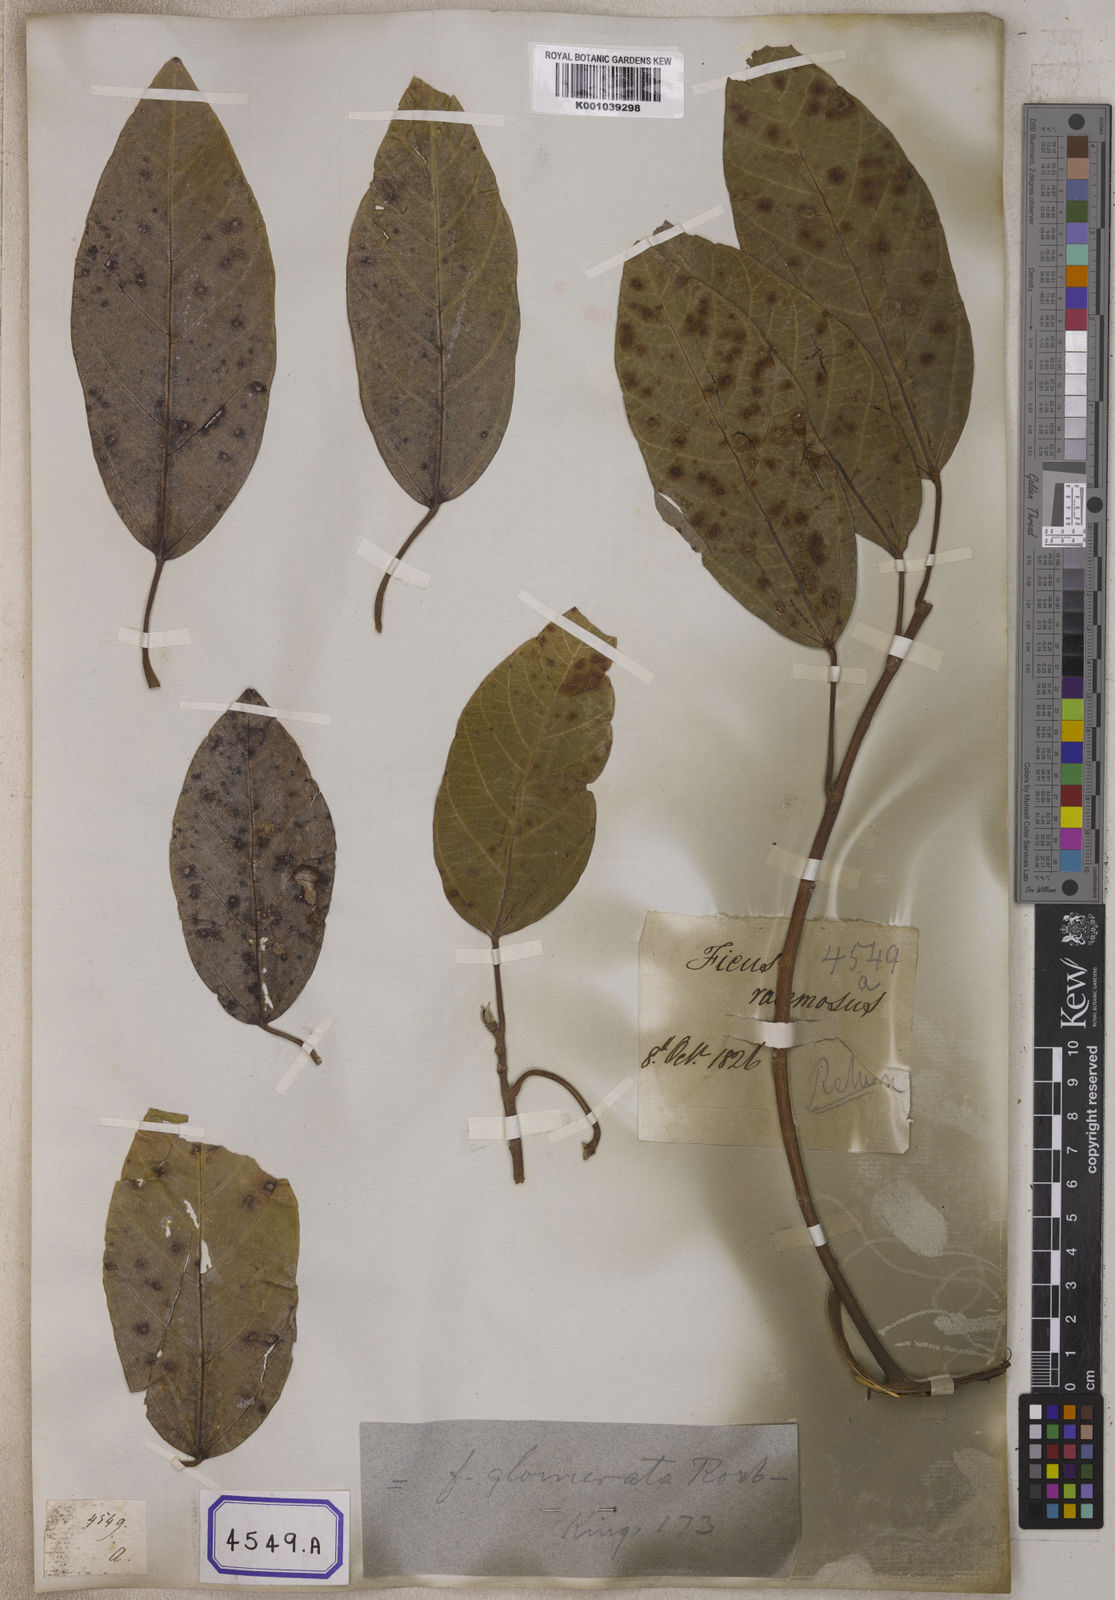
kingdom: Plantae
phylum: Tracheophyta
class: Magnoliopsida
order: Rosales
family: Moraceae
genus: Ficus
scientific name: Ficus
